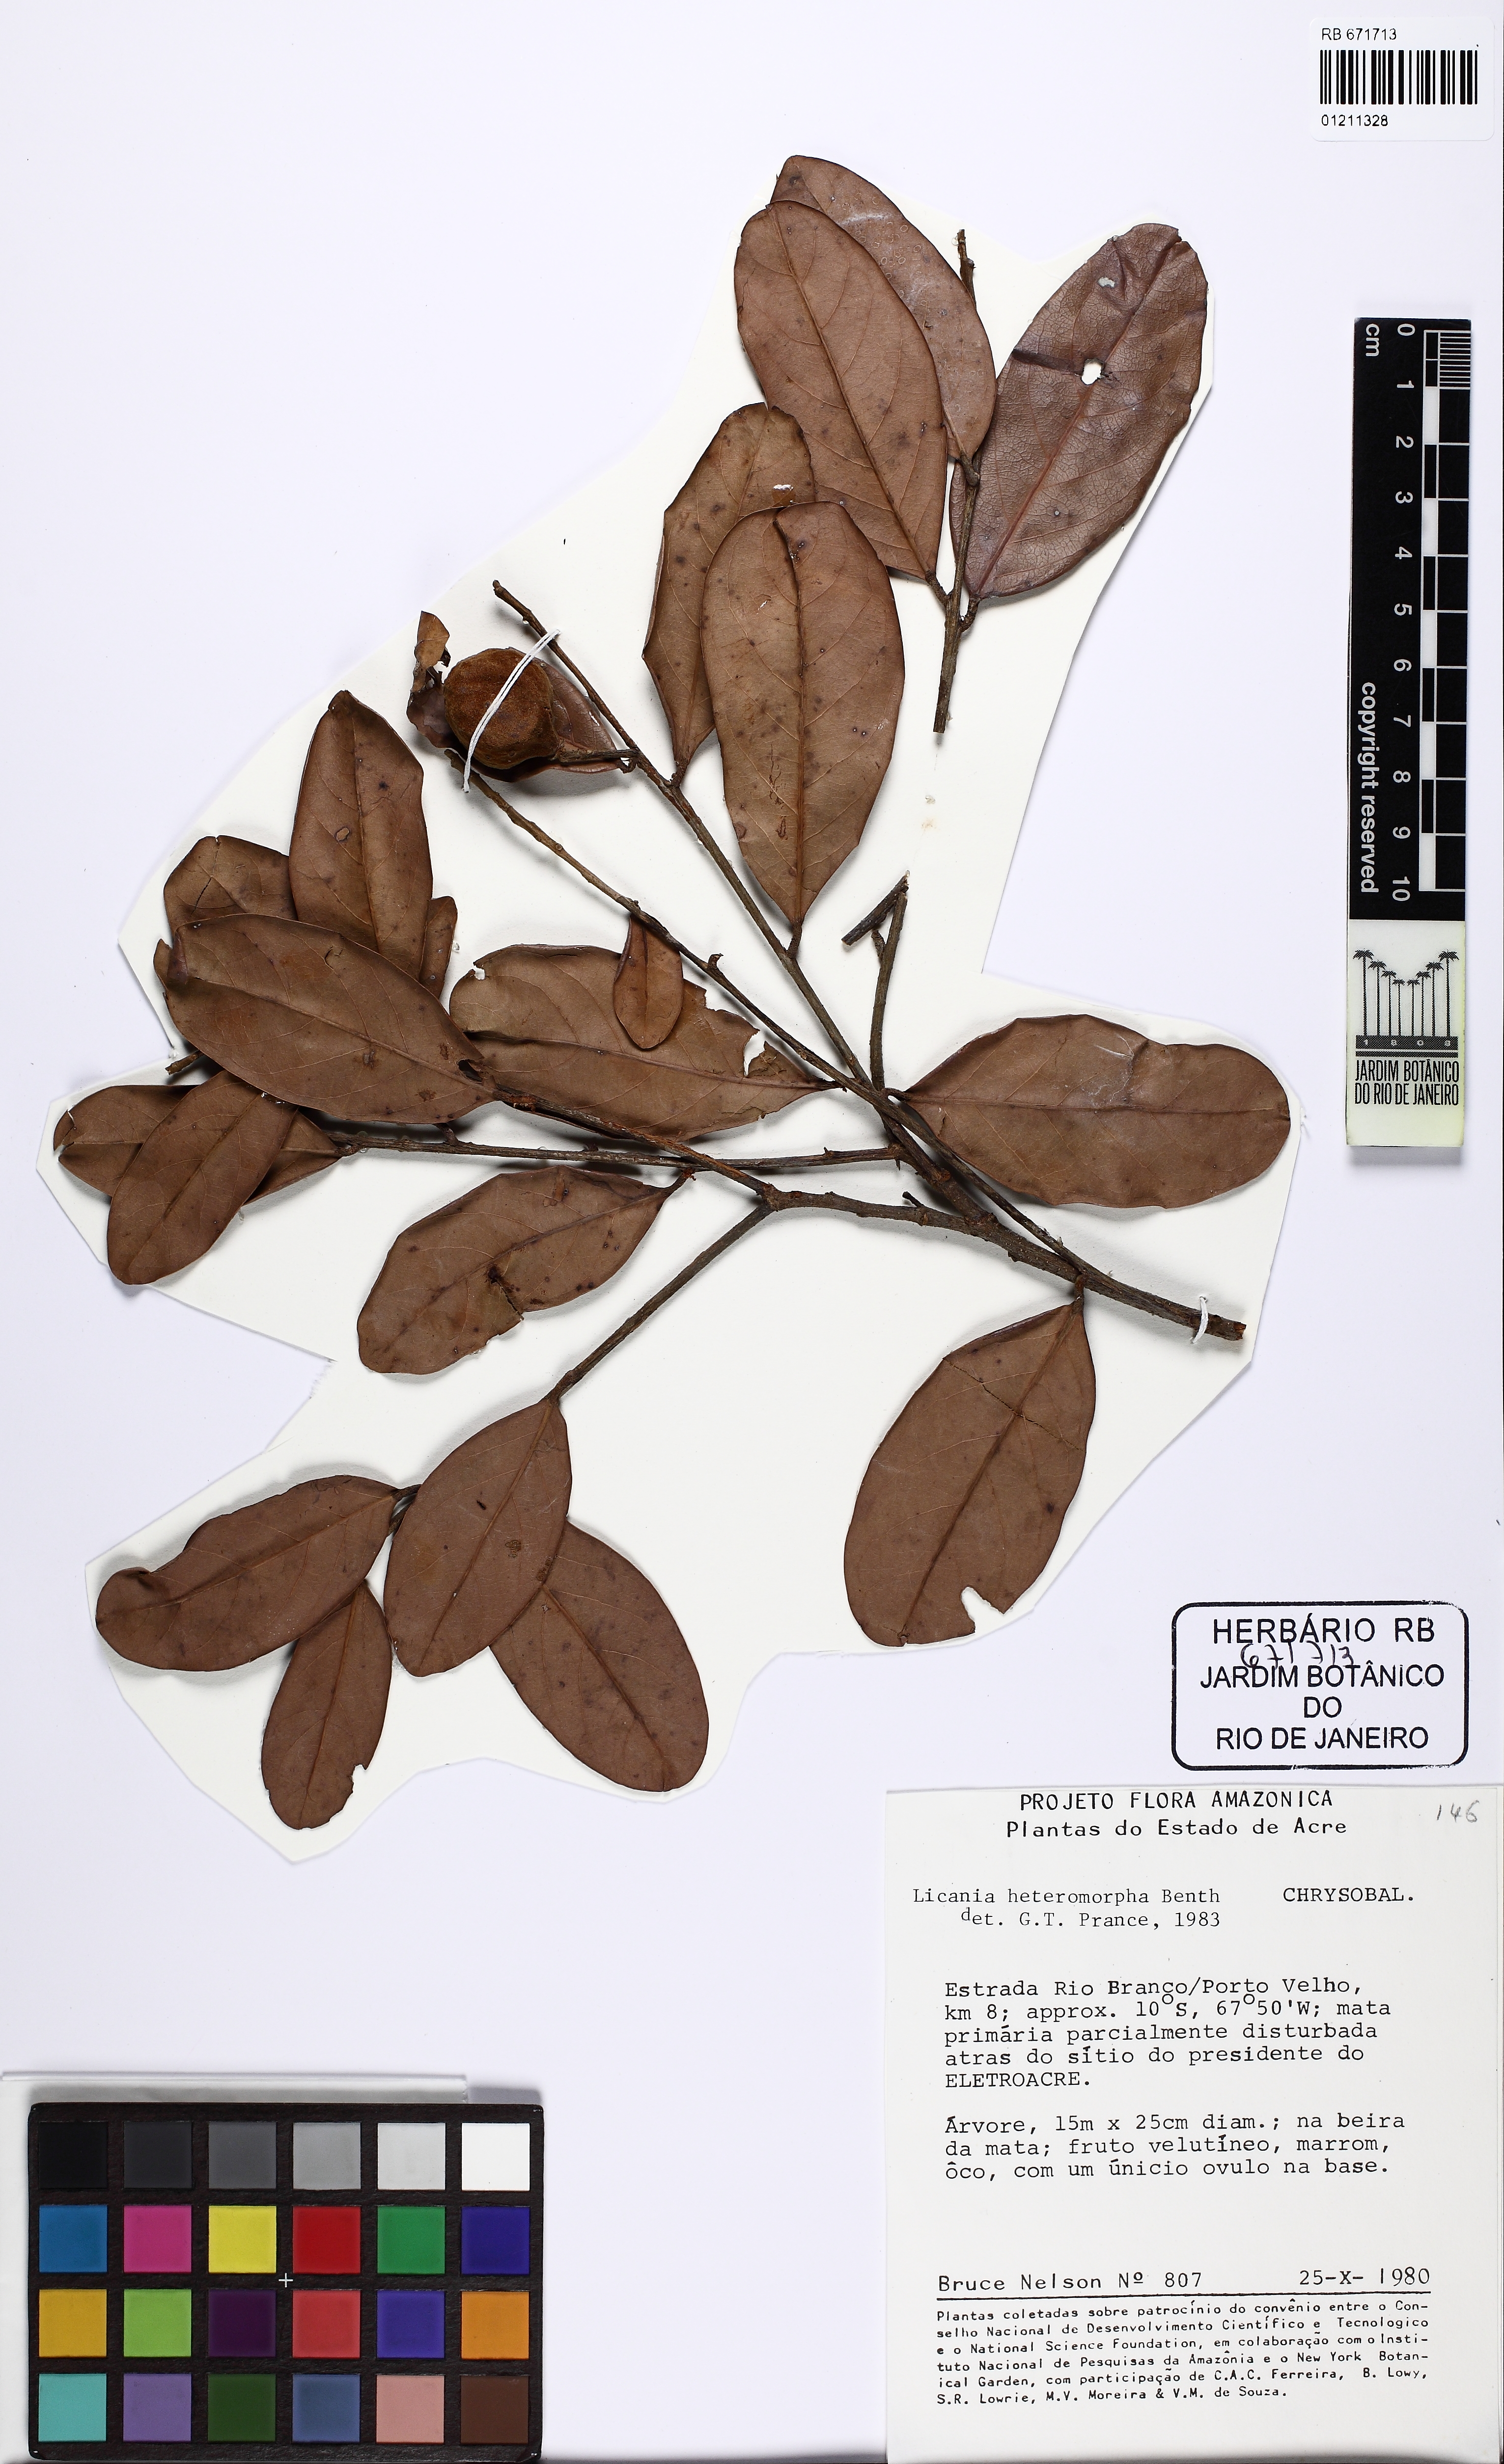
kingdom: Plantae
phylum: Tracheophyta
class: Magnoliopsida
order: Malpighiales
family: Chrysobalanaceae
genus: Hymenopus
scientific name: Hymenopus heteromorphus
